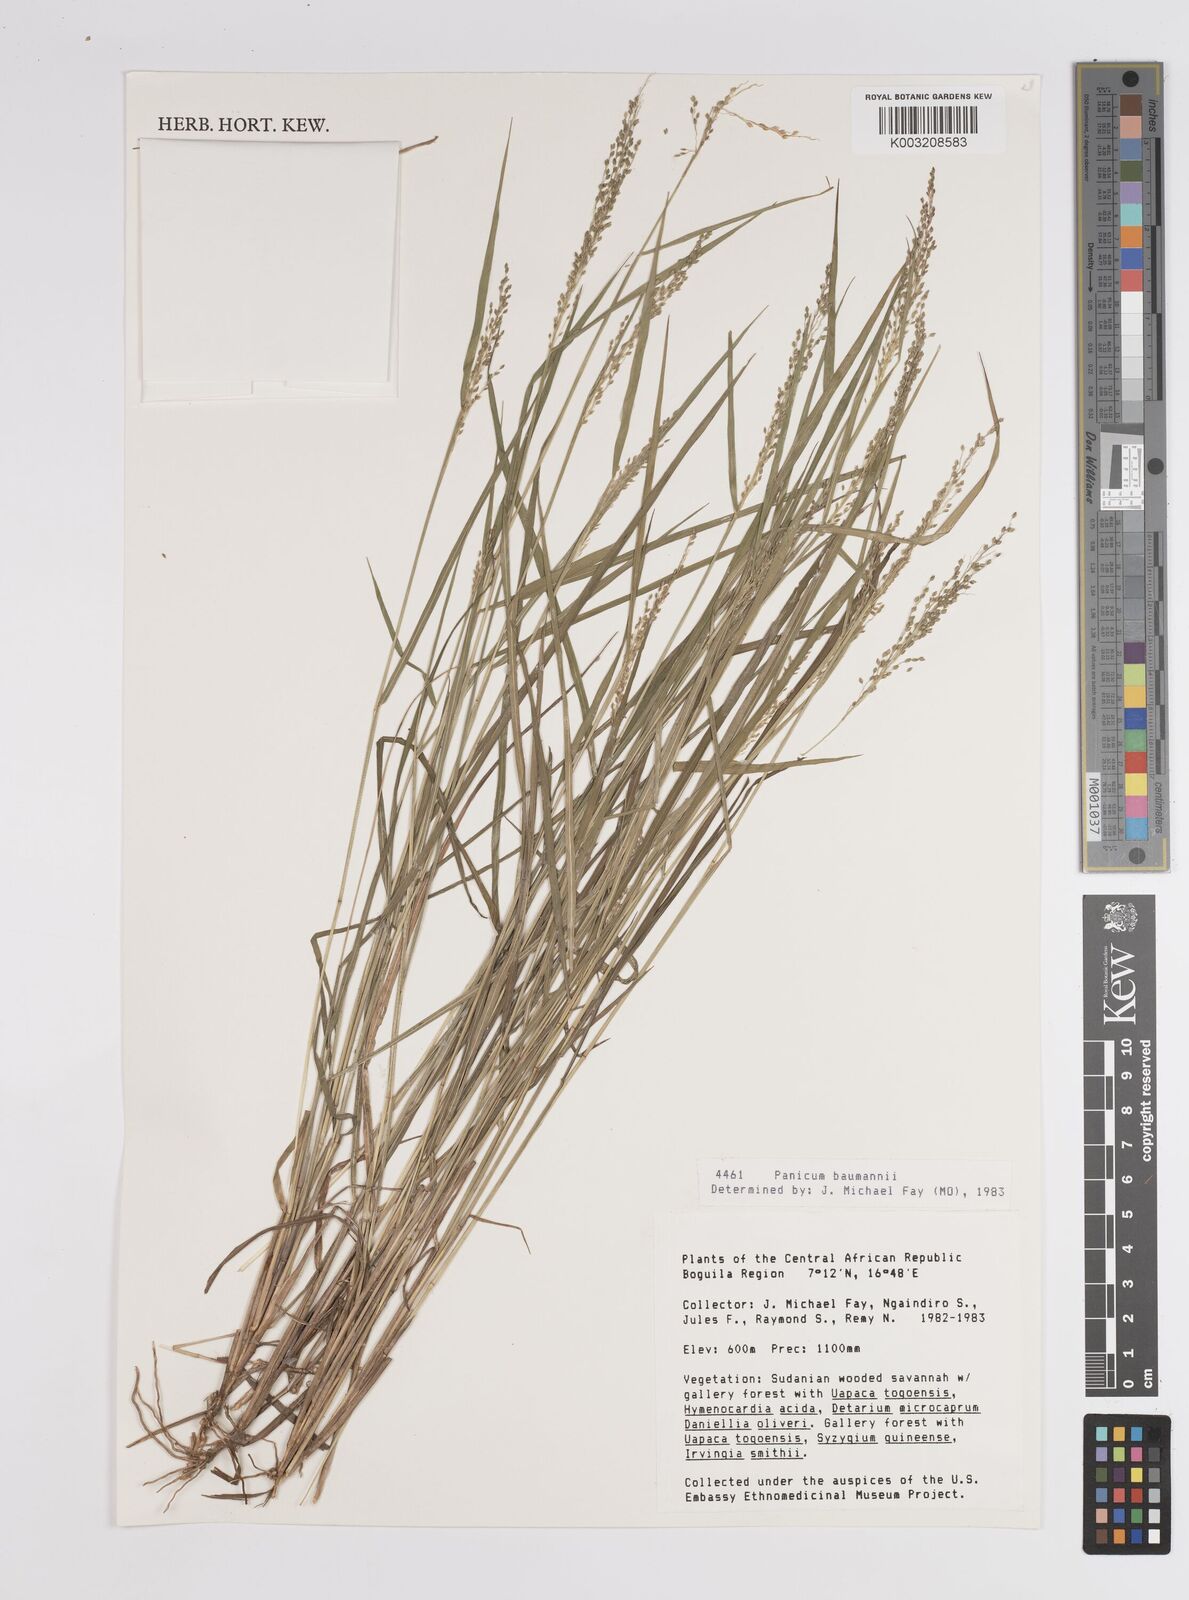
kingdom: Plantae
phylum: Tracheophyta
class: Liliopsida
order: Poales
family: Poaceae
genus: Trichanthecium
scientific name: Trichanthecium nervatum
